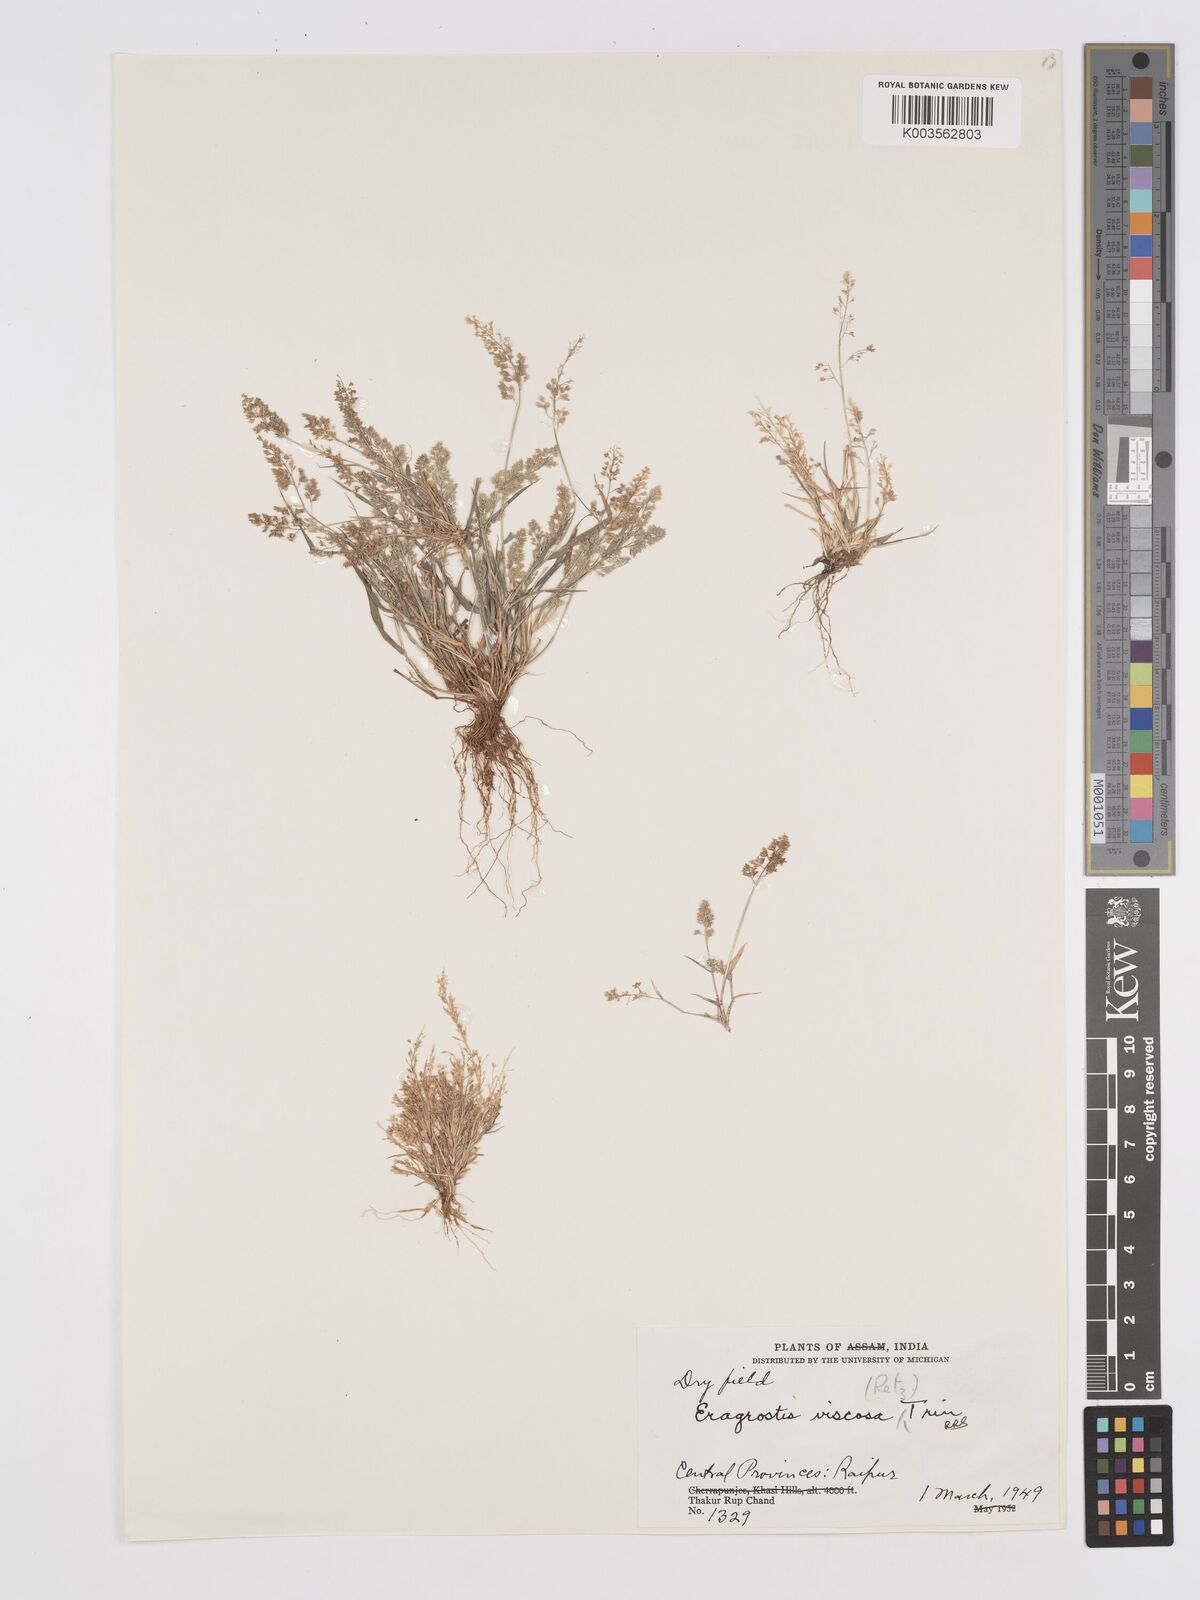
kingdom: Plantae
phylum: Tracheophyta
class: Liliopsida
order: Poales
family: Poaceae
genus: Eragrostis
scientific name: Eragrostis viscosa
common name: Sticky love grass
